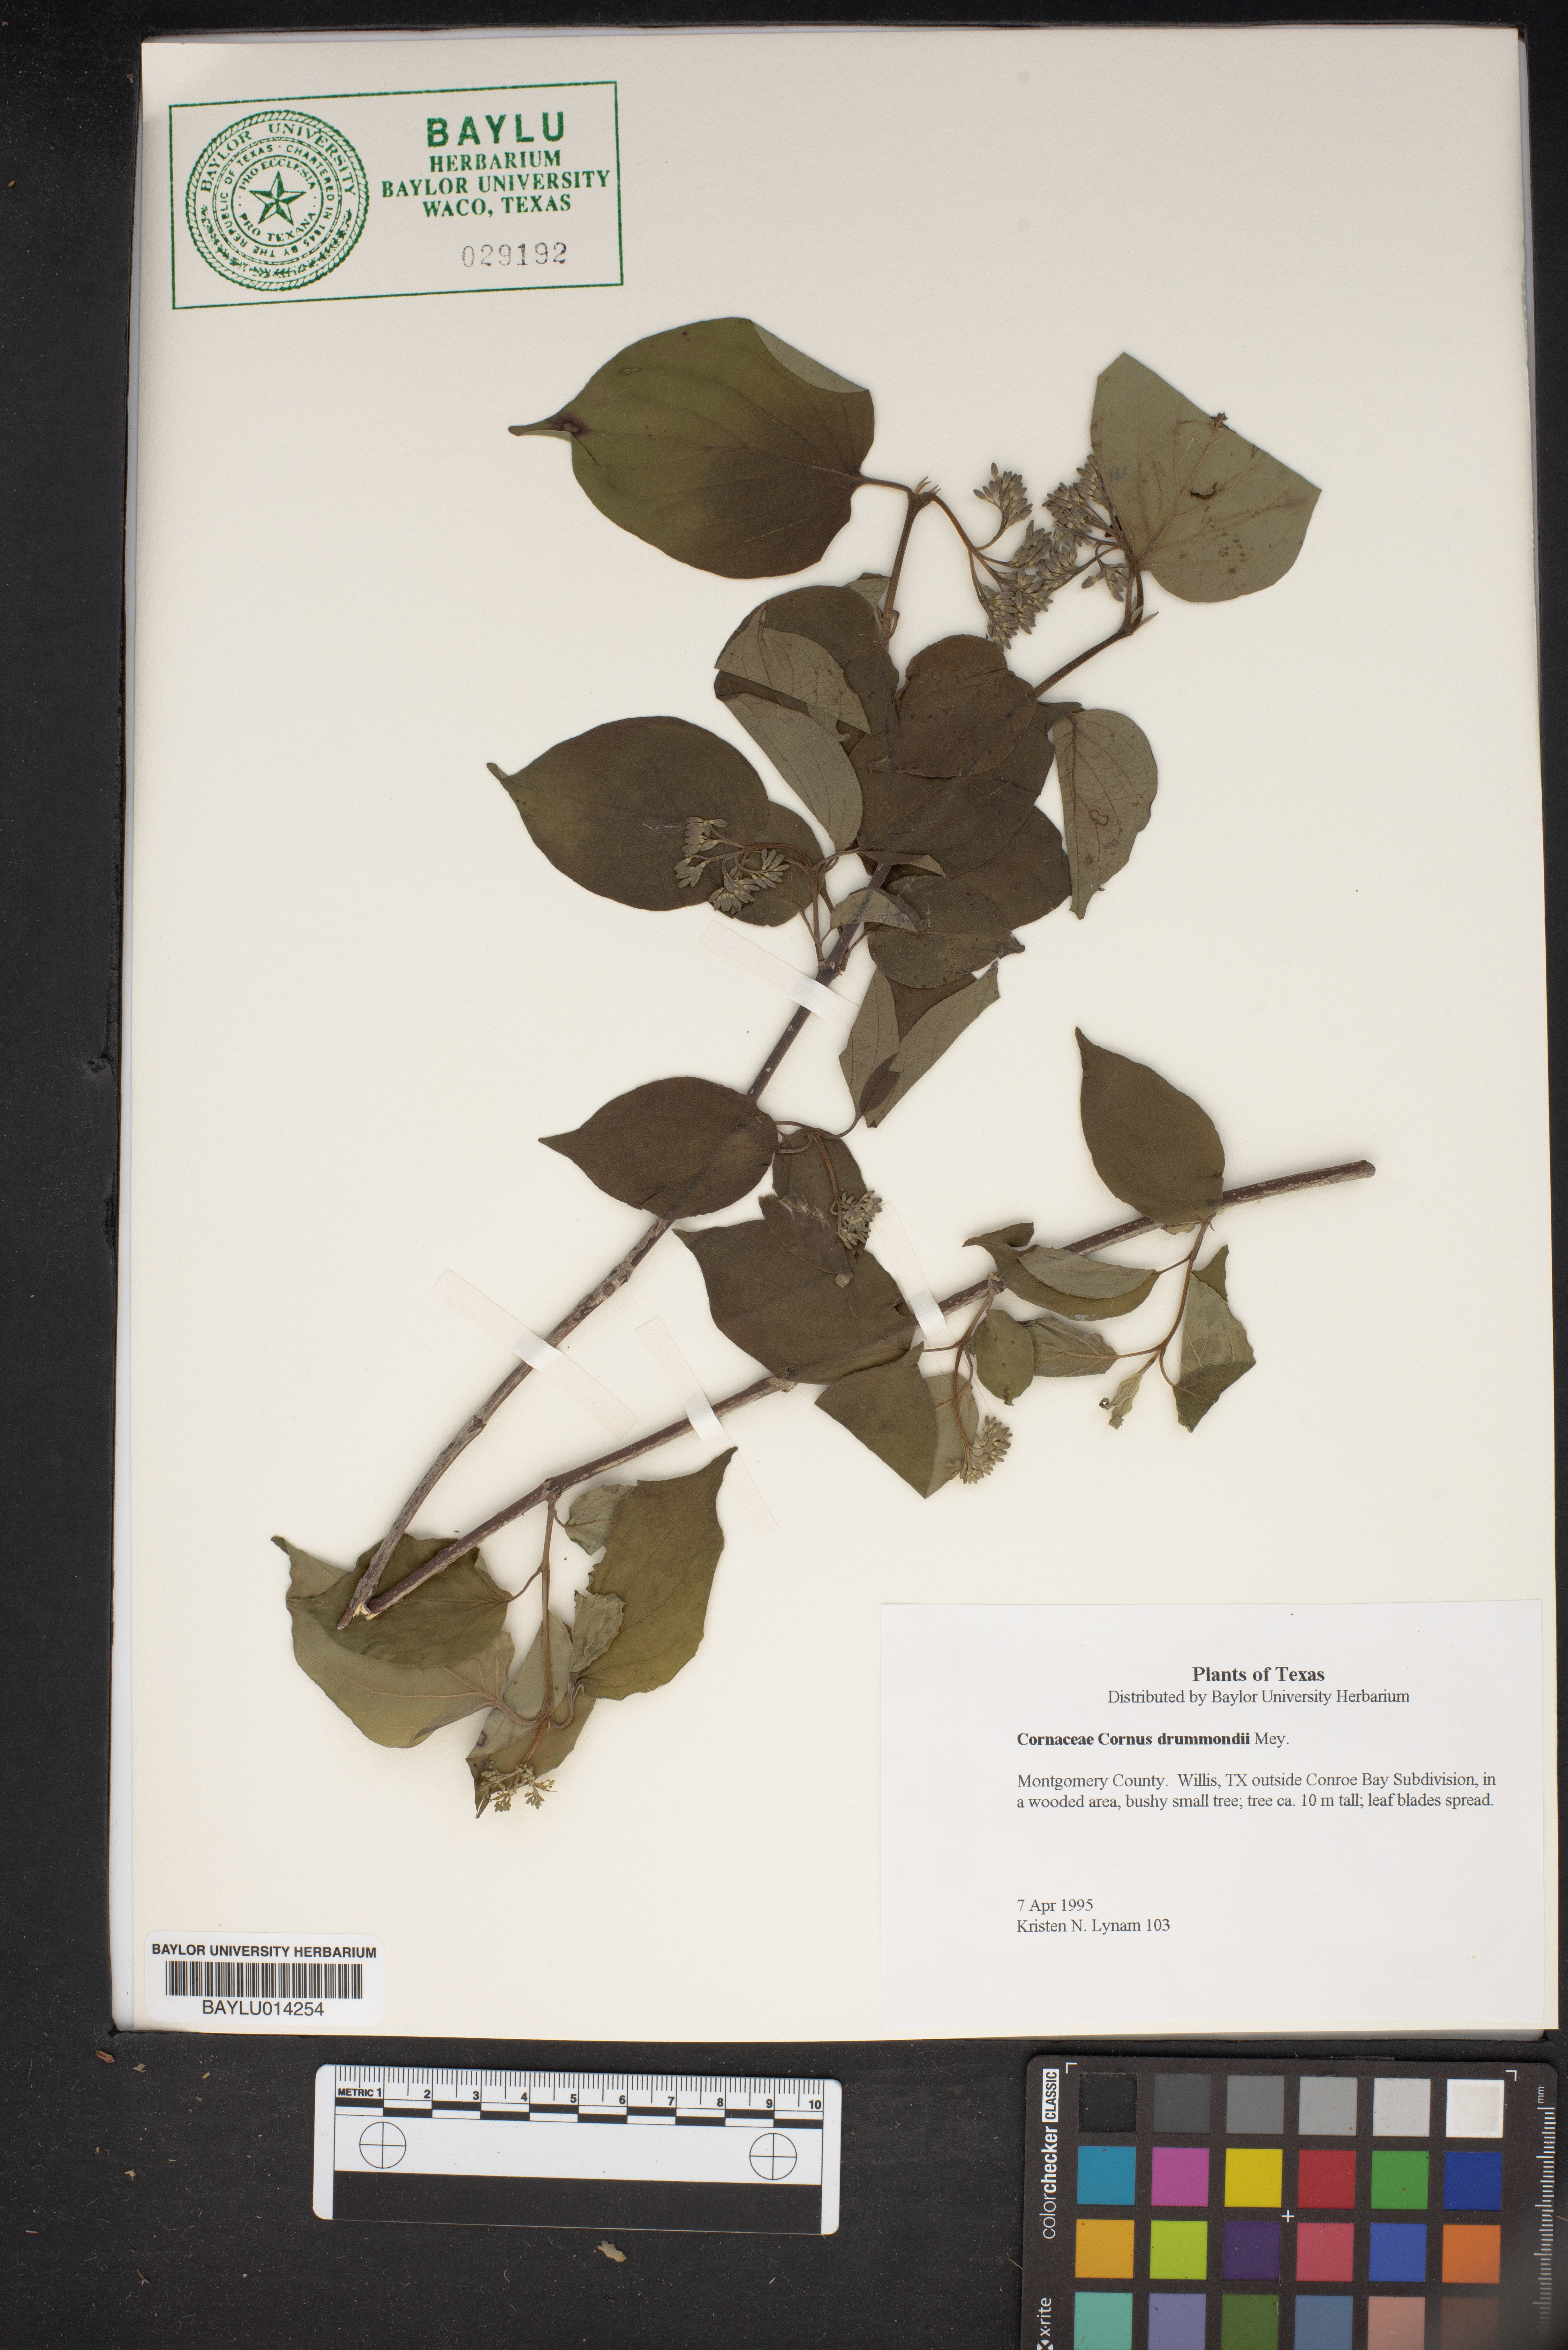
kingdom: Plantae
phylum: Tracheophyta
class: Magnoliopsida
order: Cornales
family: Cornaceae
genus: Cornus
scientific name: Cornus drummondii
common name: Rough-leaf dogwood
